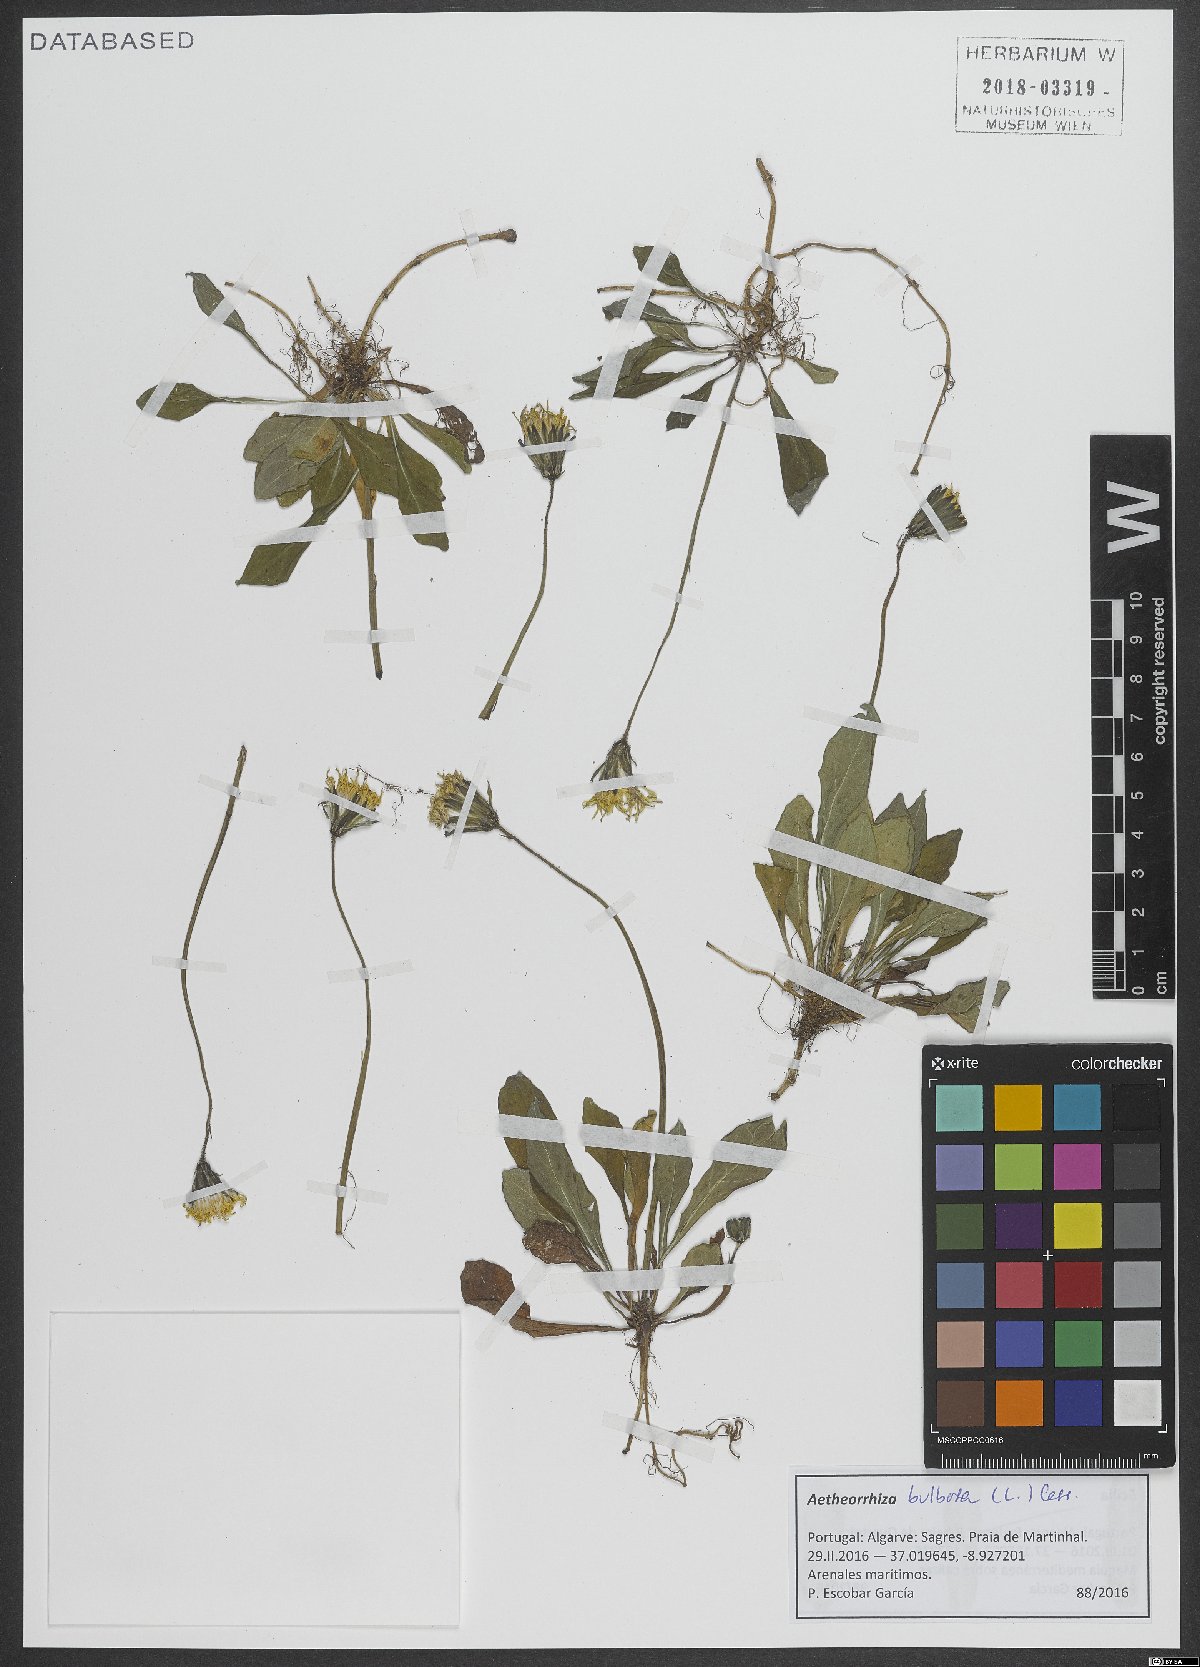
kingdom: Plantae
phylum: Tracheophyta
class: Magnoliopsida
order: Asterales
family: Asteraceae
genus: Aetheorhiza
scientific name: Aetheorhiza bulbosa
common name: Tuberous hawk's-beard
